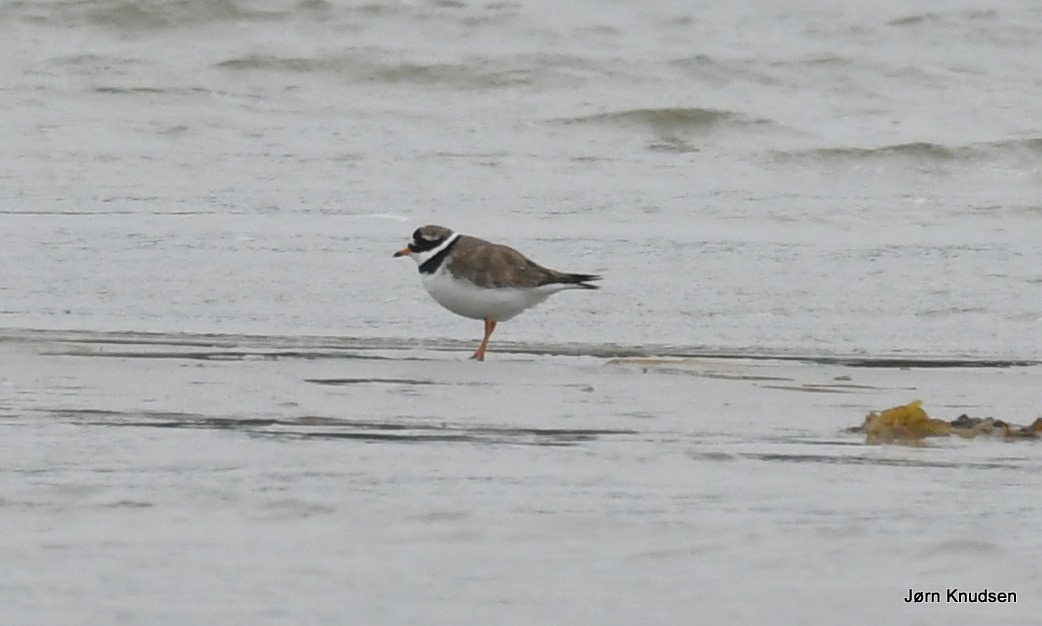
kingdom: Animalia
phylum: Chordata
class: Aves
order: Charadriiformes
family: Charadriidae
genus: Charadrius
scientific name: Charadrius hiaticula
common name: Stor præstekrave
